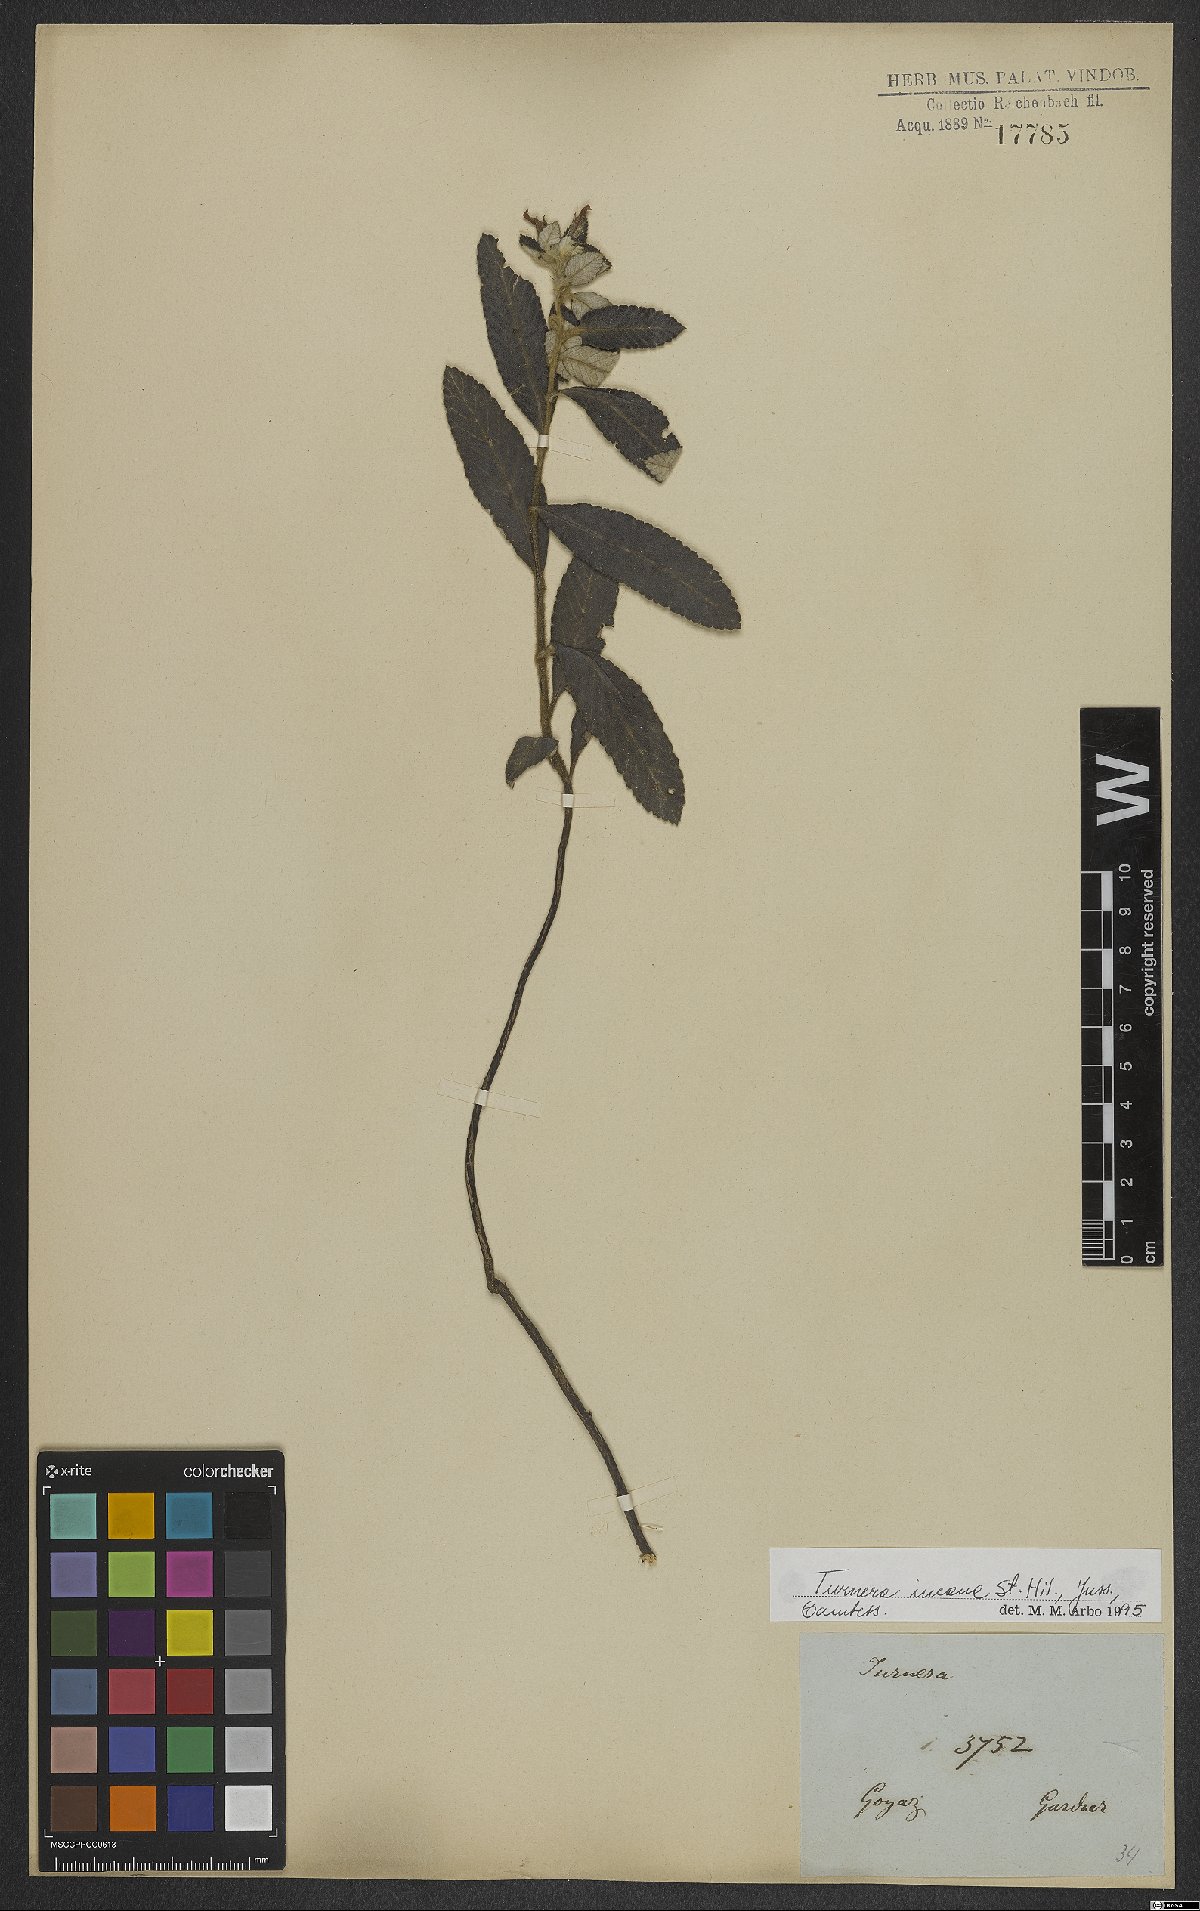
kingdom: Plantae
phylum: Tracheophyta
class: Magnoliopsida
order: Malpighiales
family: Turneraceae
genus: Turnera
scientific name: Turnera incana
